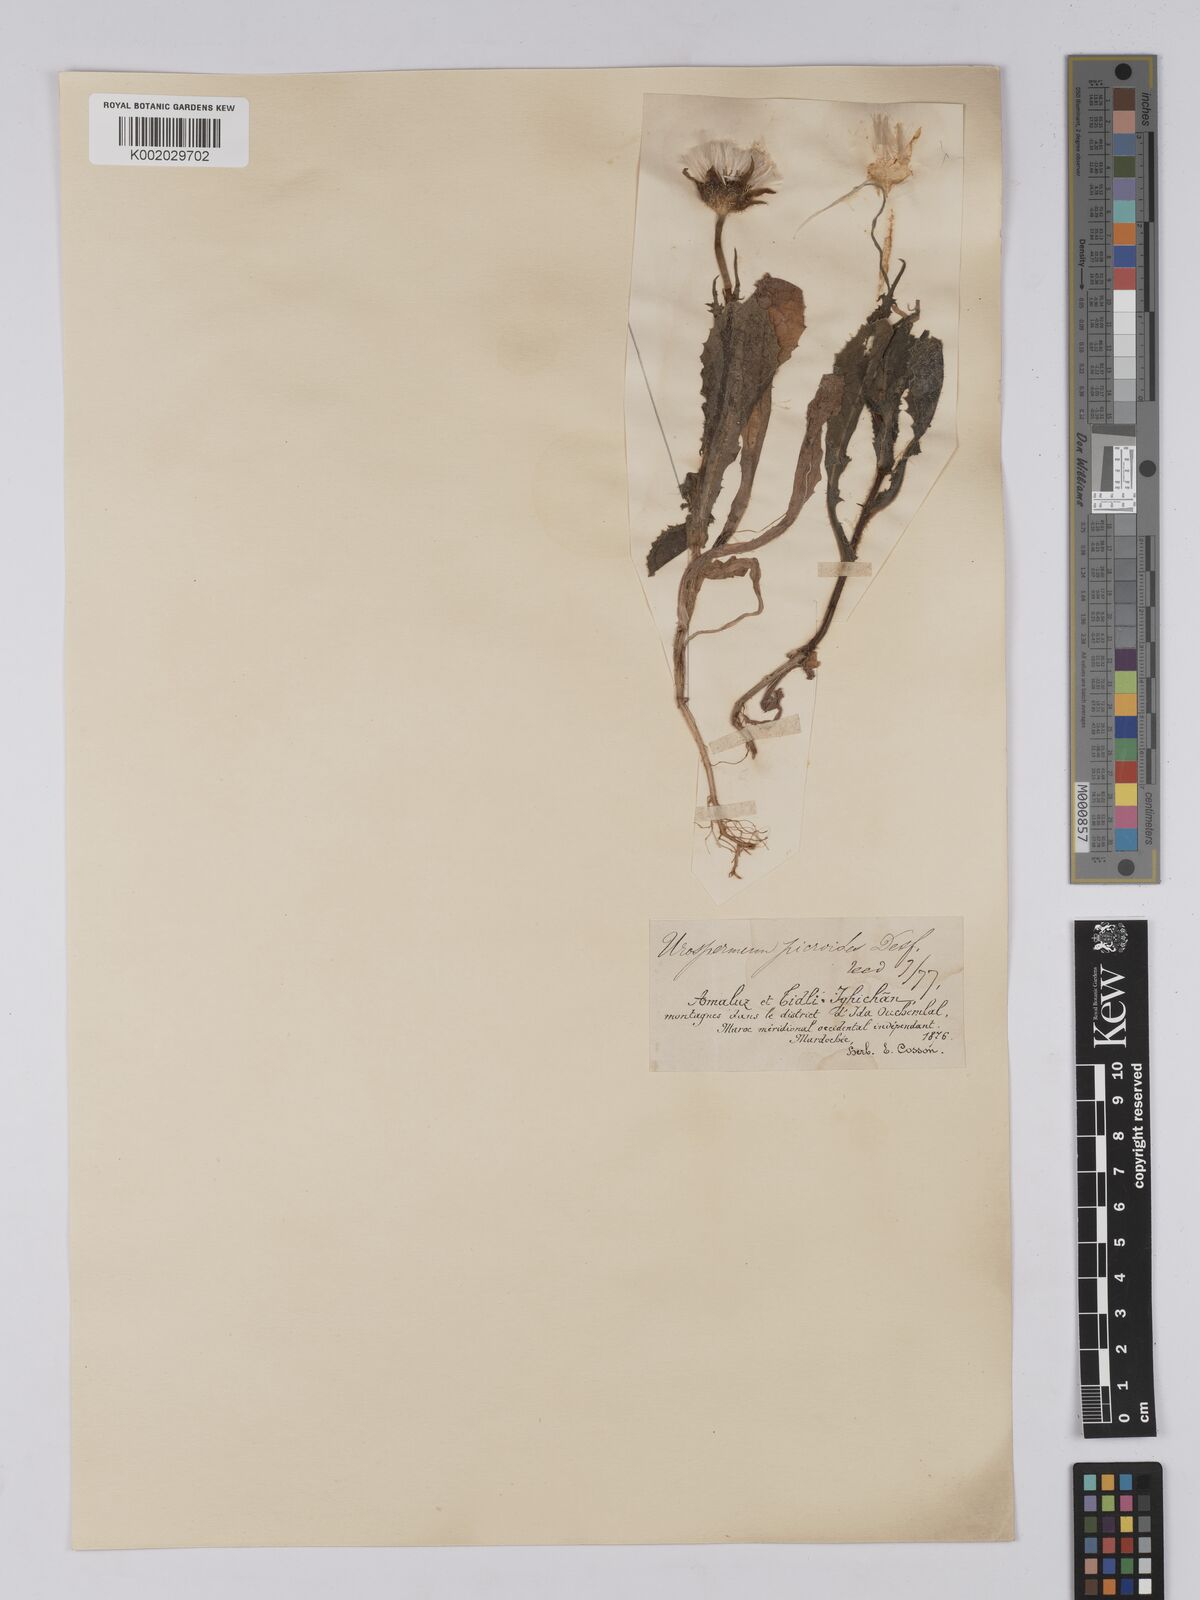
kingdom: Plantae
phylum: Tracheophyta
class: Magnoliopsida
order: Asterales
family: Asteraceae
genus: Urospermum
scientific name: Urospermum picroides
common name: False hawkbit
